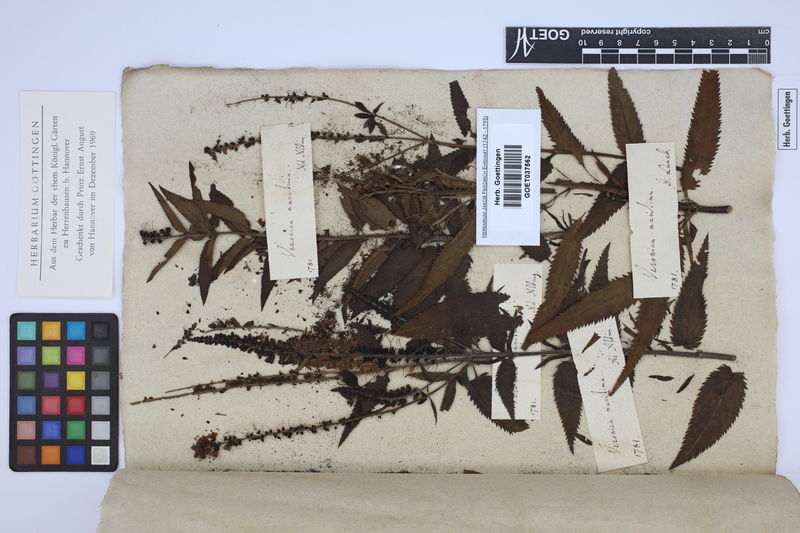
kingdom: Plantae
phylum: Tracheophyta
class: Magnoliopsida
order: Lamiales
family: Plantaginaceae
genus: Veronica
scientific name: Veronica maritima
